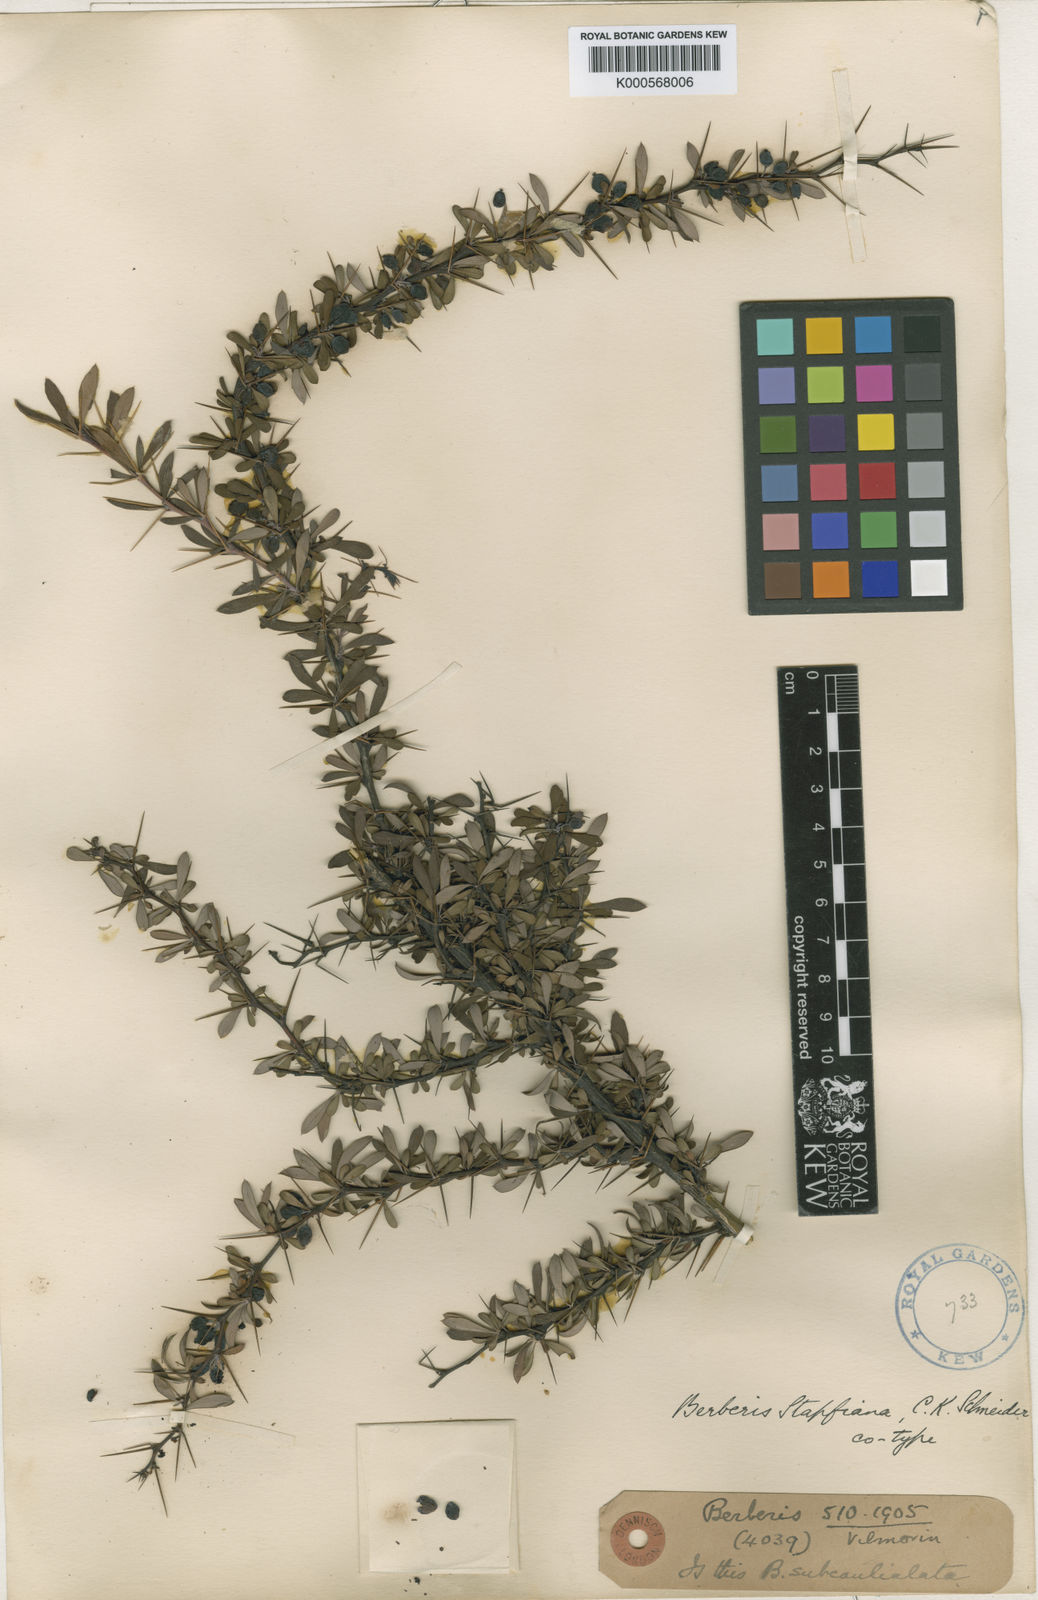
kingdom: Plantae
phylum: Tracheophyta
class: Magnoliopsida
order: Ranunculales
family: Berberidaceae
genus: Berberis
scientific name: Berberis wilsoniae
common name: Mrs wilson's barberry
